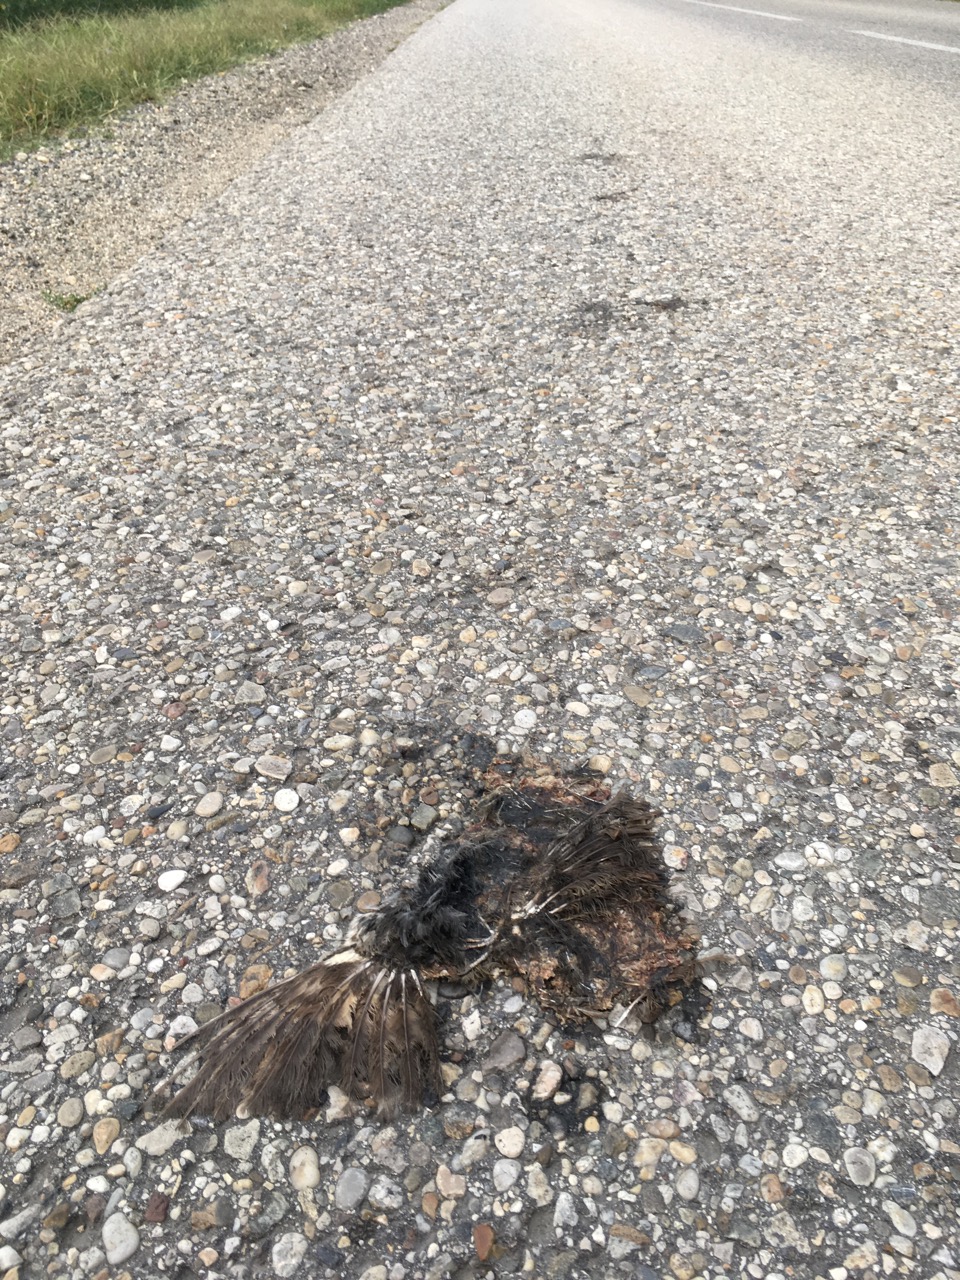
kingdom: Animalia
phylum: Chordata
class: Aves
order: Passeriformes
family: Turdidae
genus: Turdus
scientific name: Turdus merula
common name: Common blackbird
